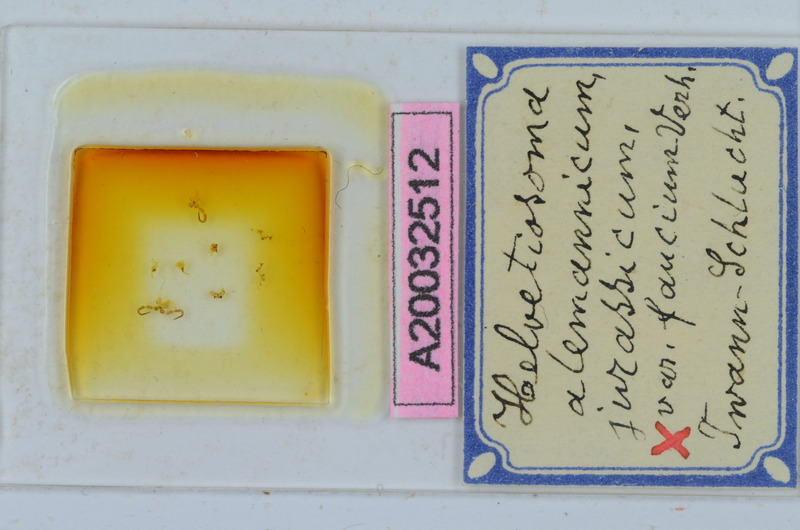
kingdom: Animalia
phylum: Arthropoda
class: Diplopoda
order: Chordeumatida
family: Craspedosomatidae
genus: Helvetiosoma
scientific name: Helvetiosoma helveticum
